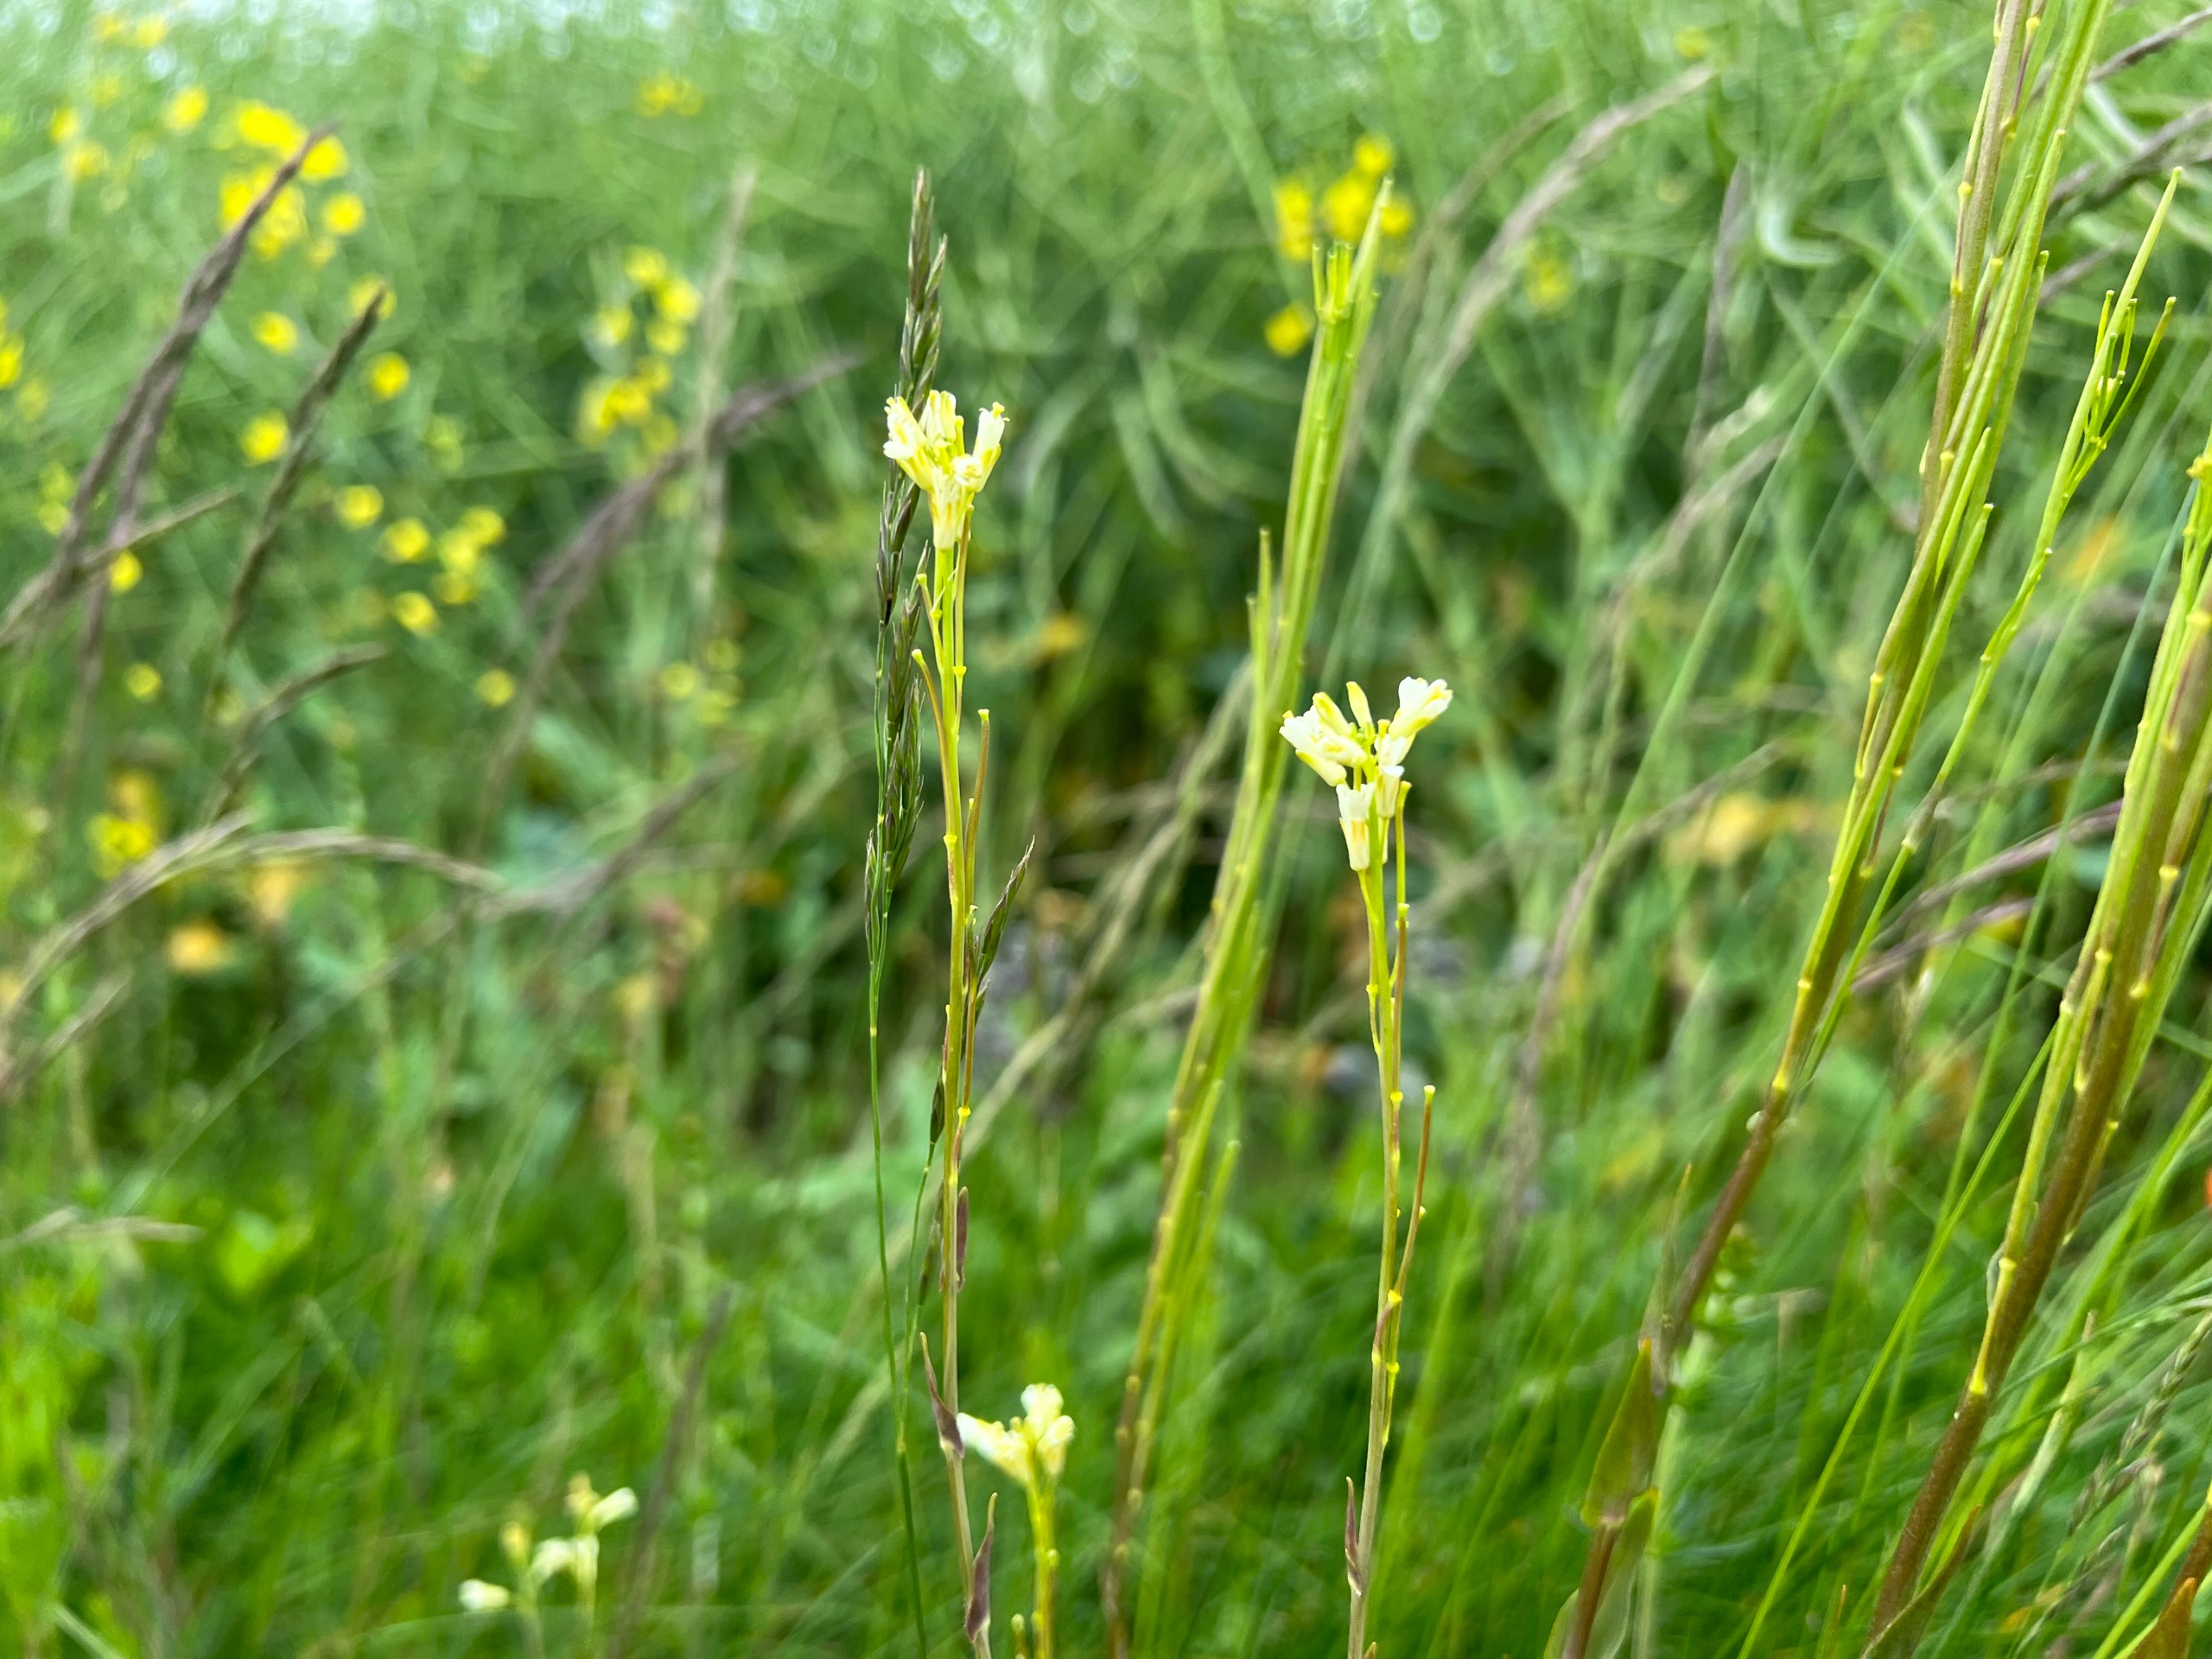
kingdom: Plantae
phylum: Tracheophyta
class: Magnoliopsida
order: Brassicales
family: Brassicaceae
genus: Turritis
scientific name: Turritis glabra
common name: Tårnurt
